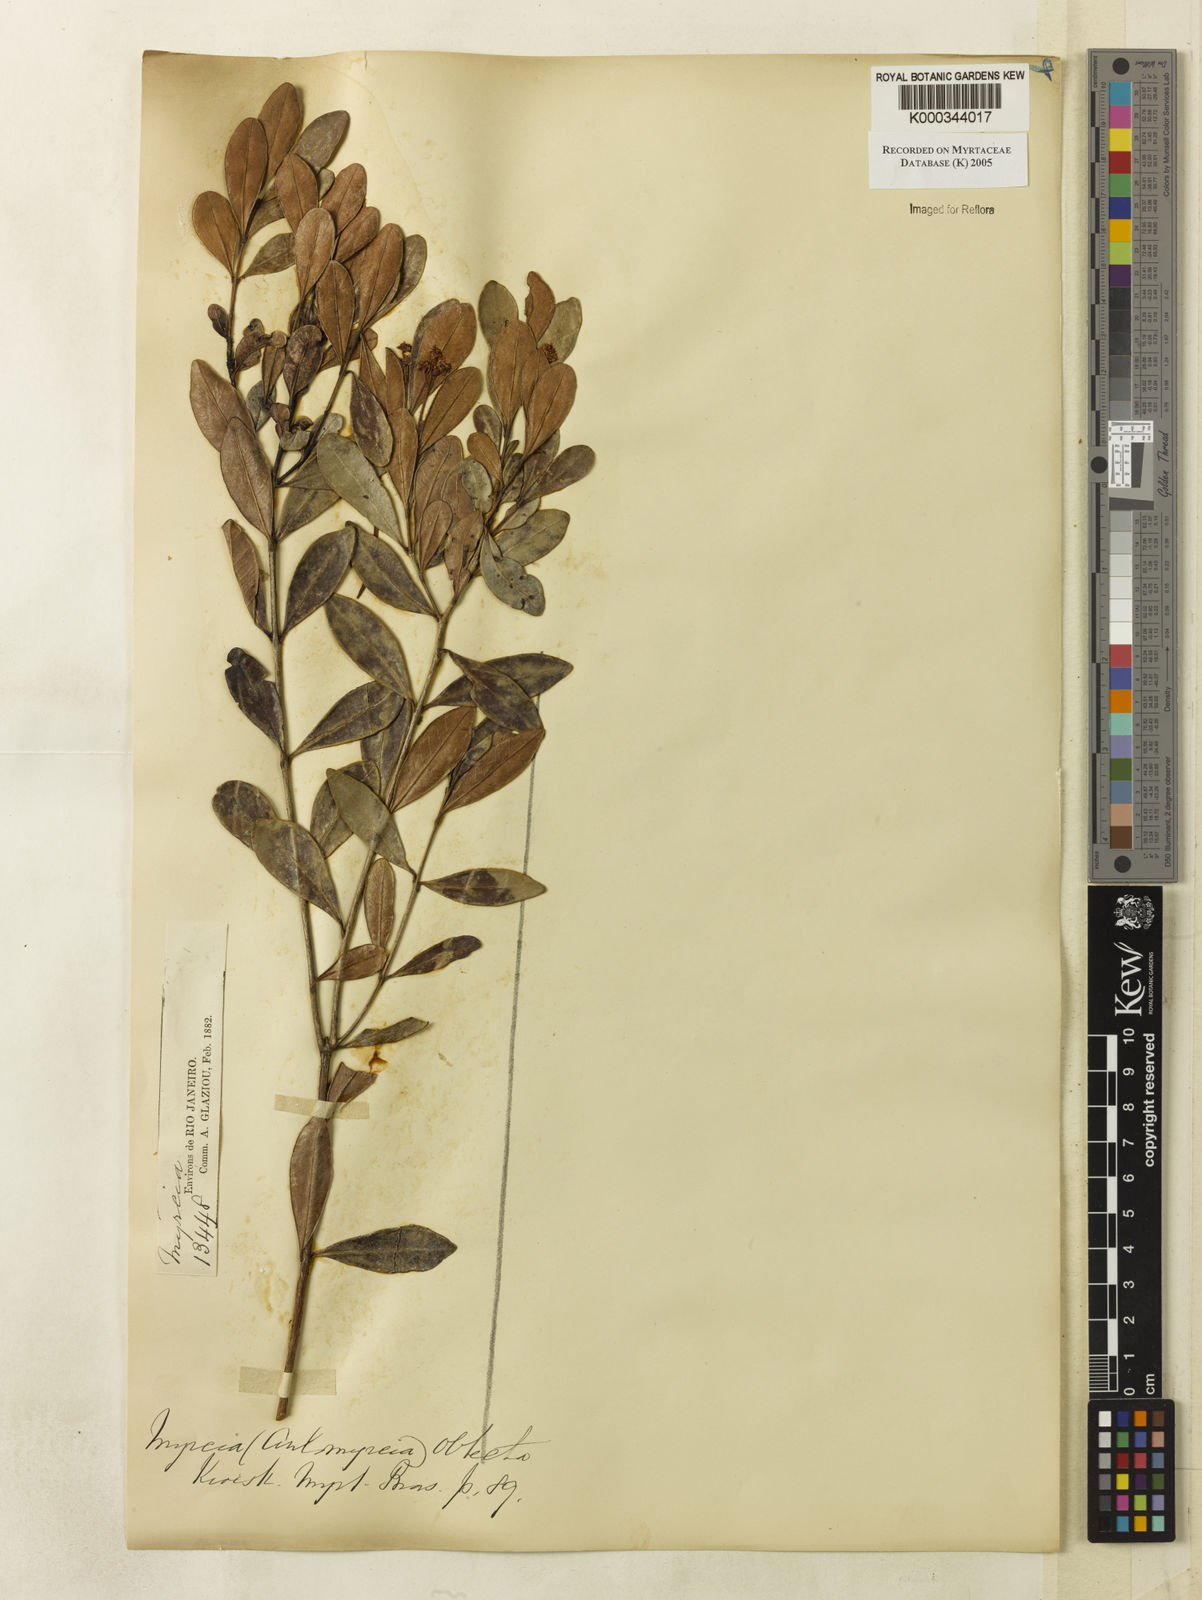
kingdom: Plantae
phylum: Tracheophyta
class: Magnoliopsida
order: Myrtales
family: Myrtaceae
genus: Myrcia
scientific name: Myrcia guianensis
